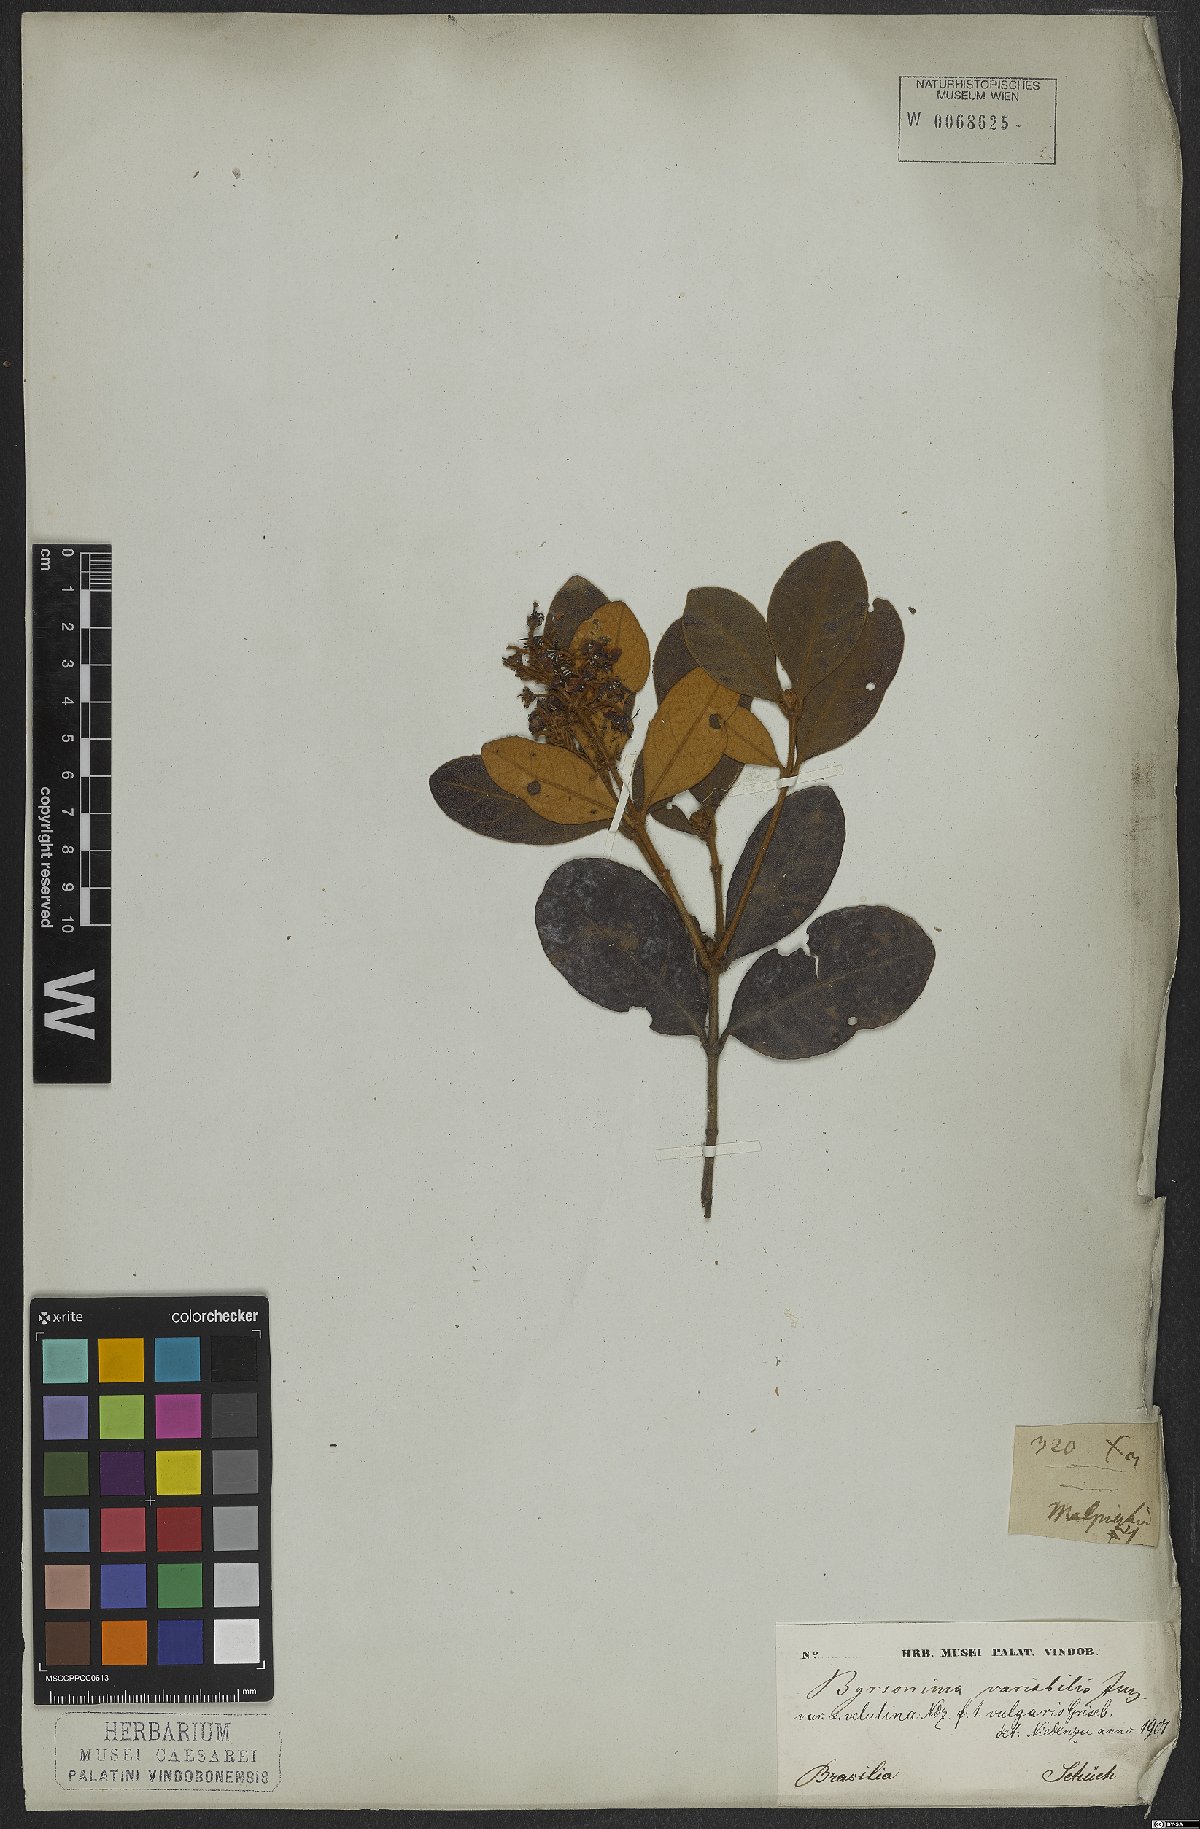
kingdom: Plantae
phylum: Tracheophyta
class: Magnoliopsida
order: Malpighiales
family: Malpighiaceae
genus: Byrsonima
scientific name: Byrsonima variabilis
